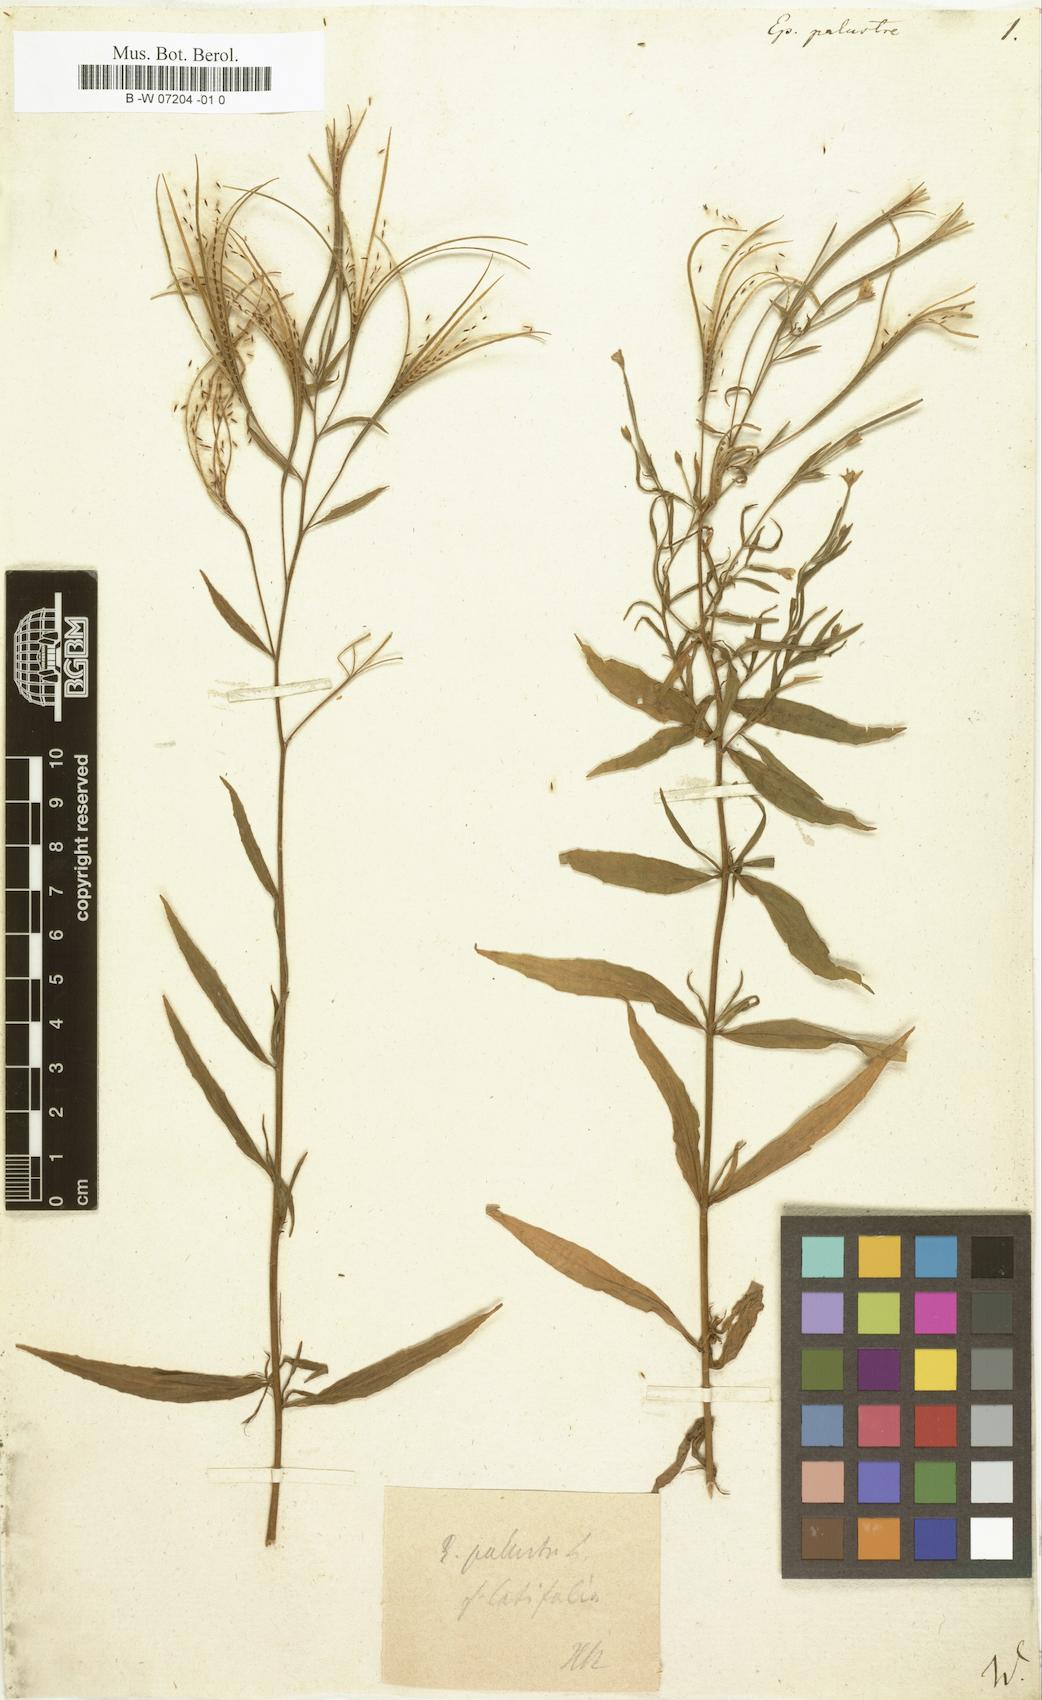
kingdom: Plantae
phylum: Tracheophyta
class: Magnoliopsida
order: Myrtales
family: Onagraceae
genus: Epilobium
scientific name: Epilobium palustre
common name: Marsh willowherb
